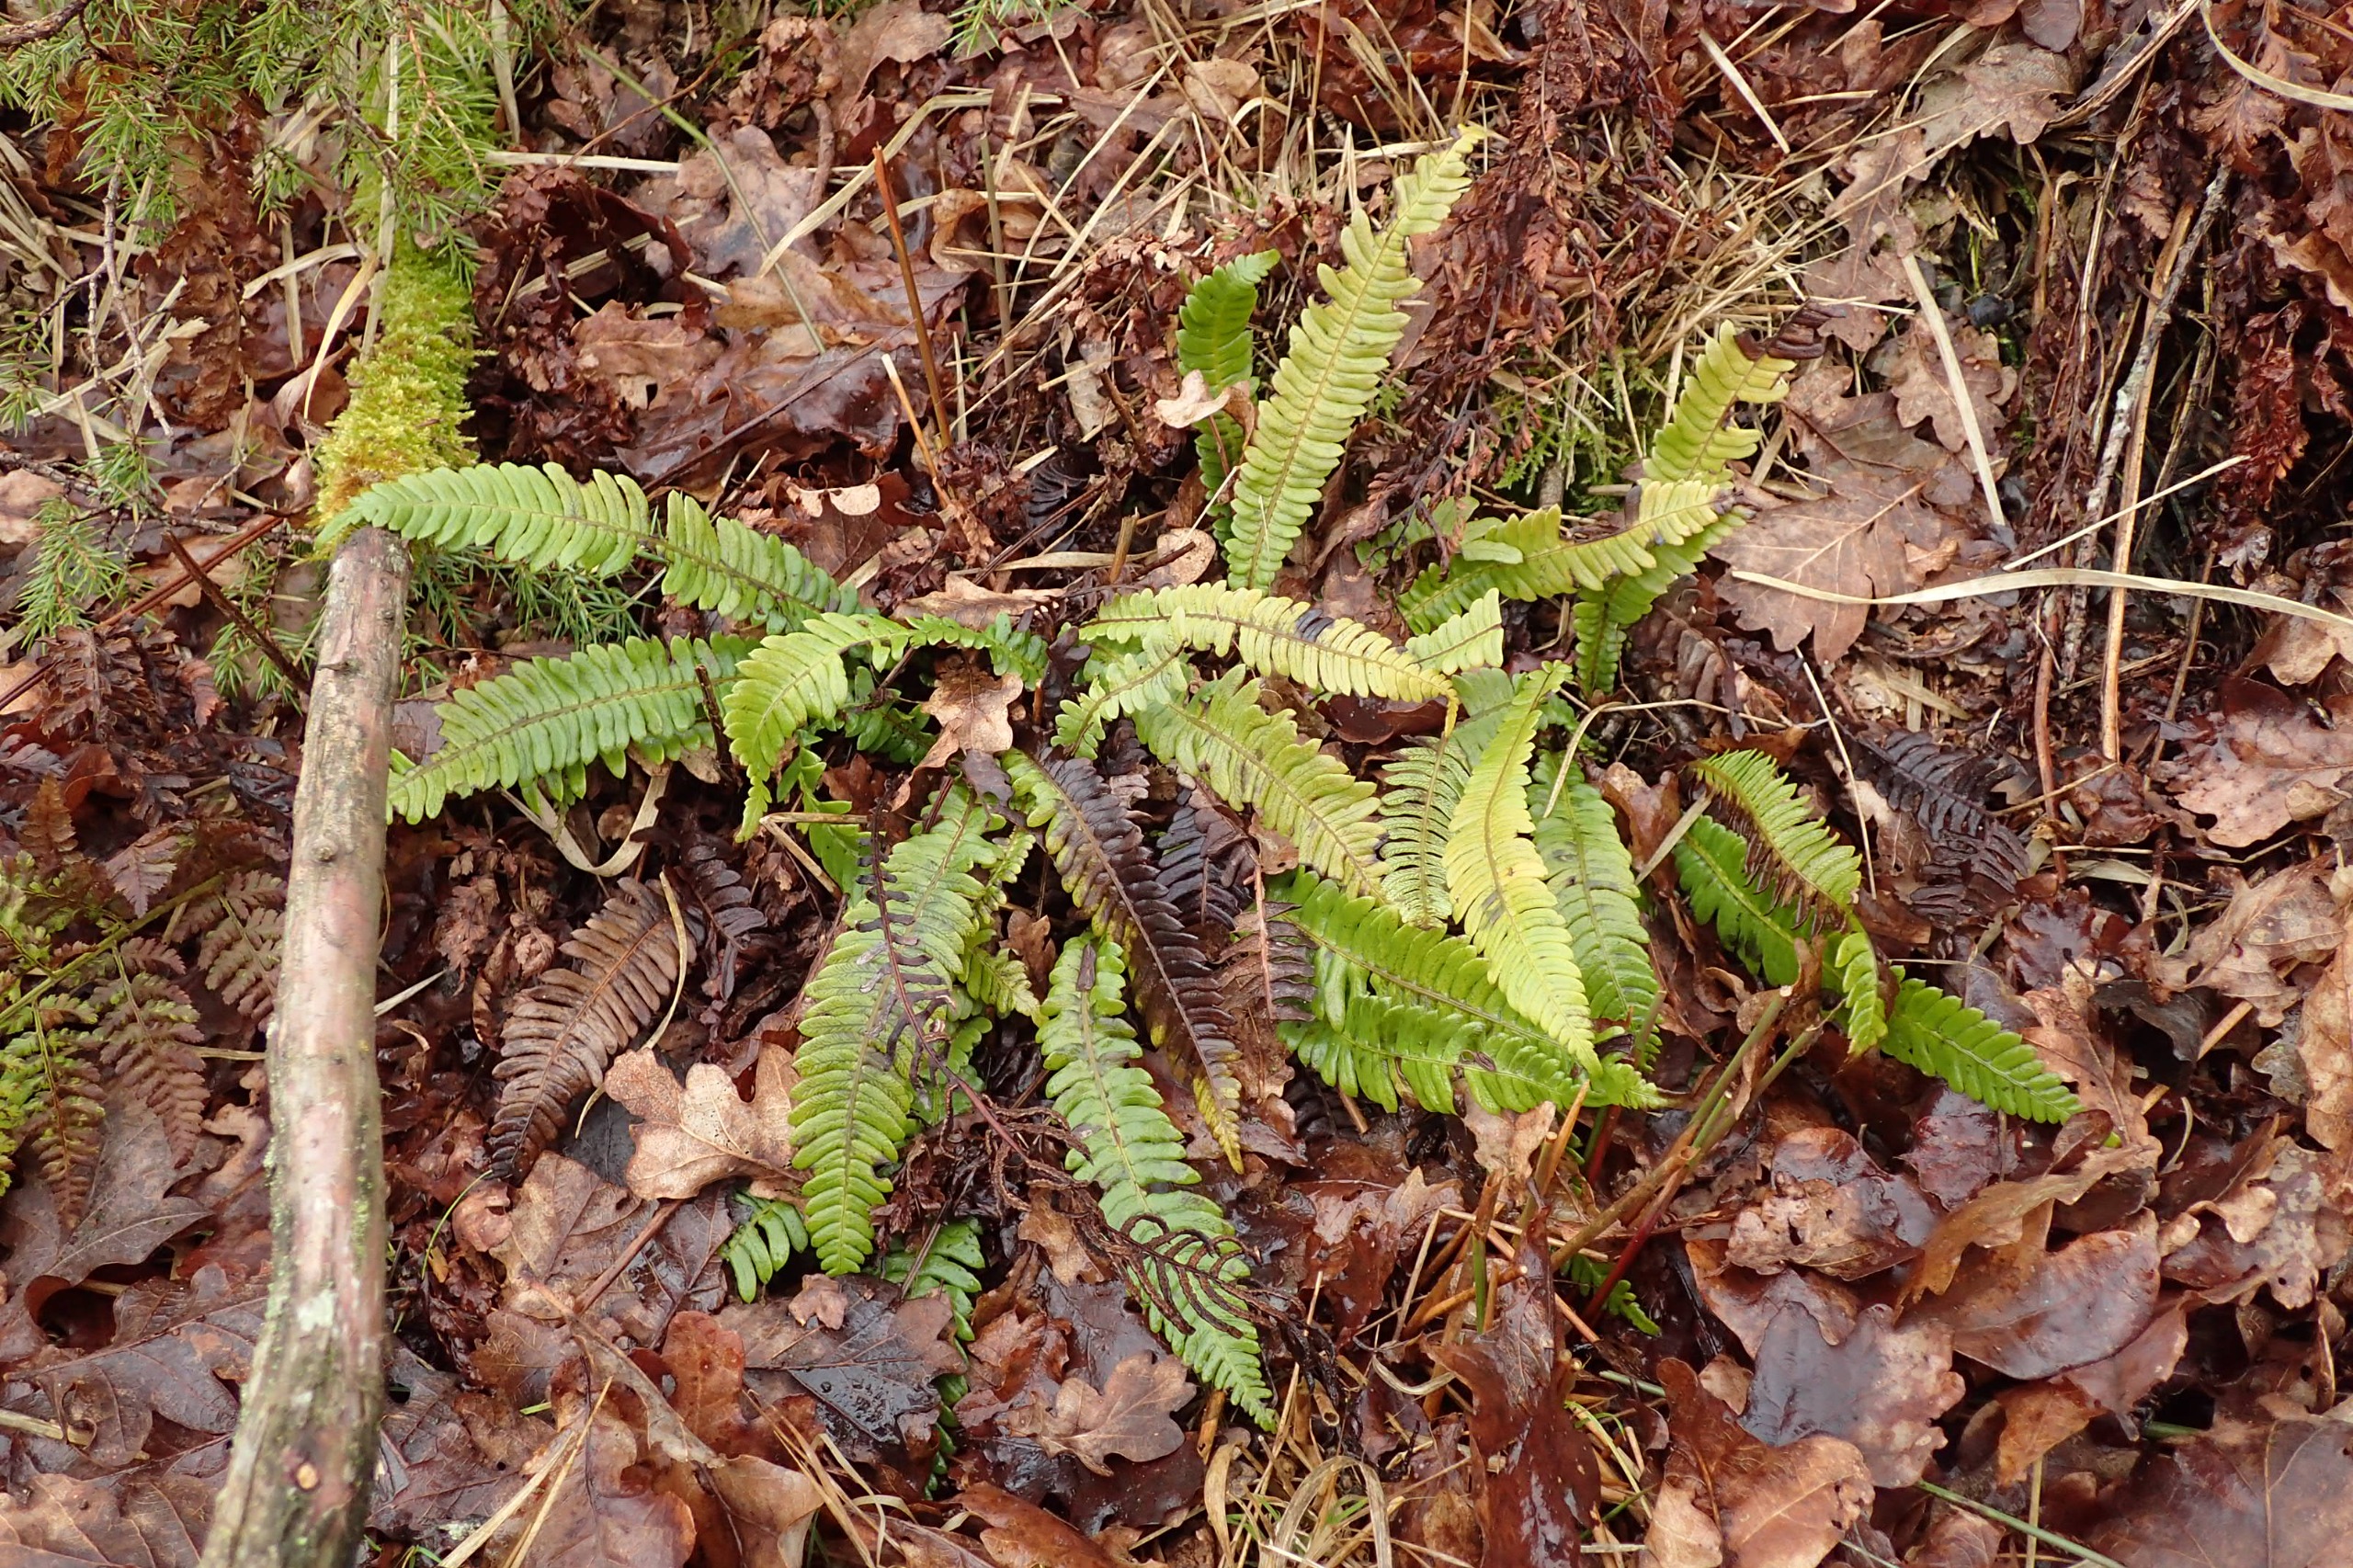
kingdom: Plantae
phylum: Tracheophyta
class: Polypodiopsida
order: Polypodiales
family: Blechnaceae
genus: Struthiopteris
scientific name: Struthiopteris spicant
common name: Kambregne
